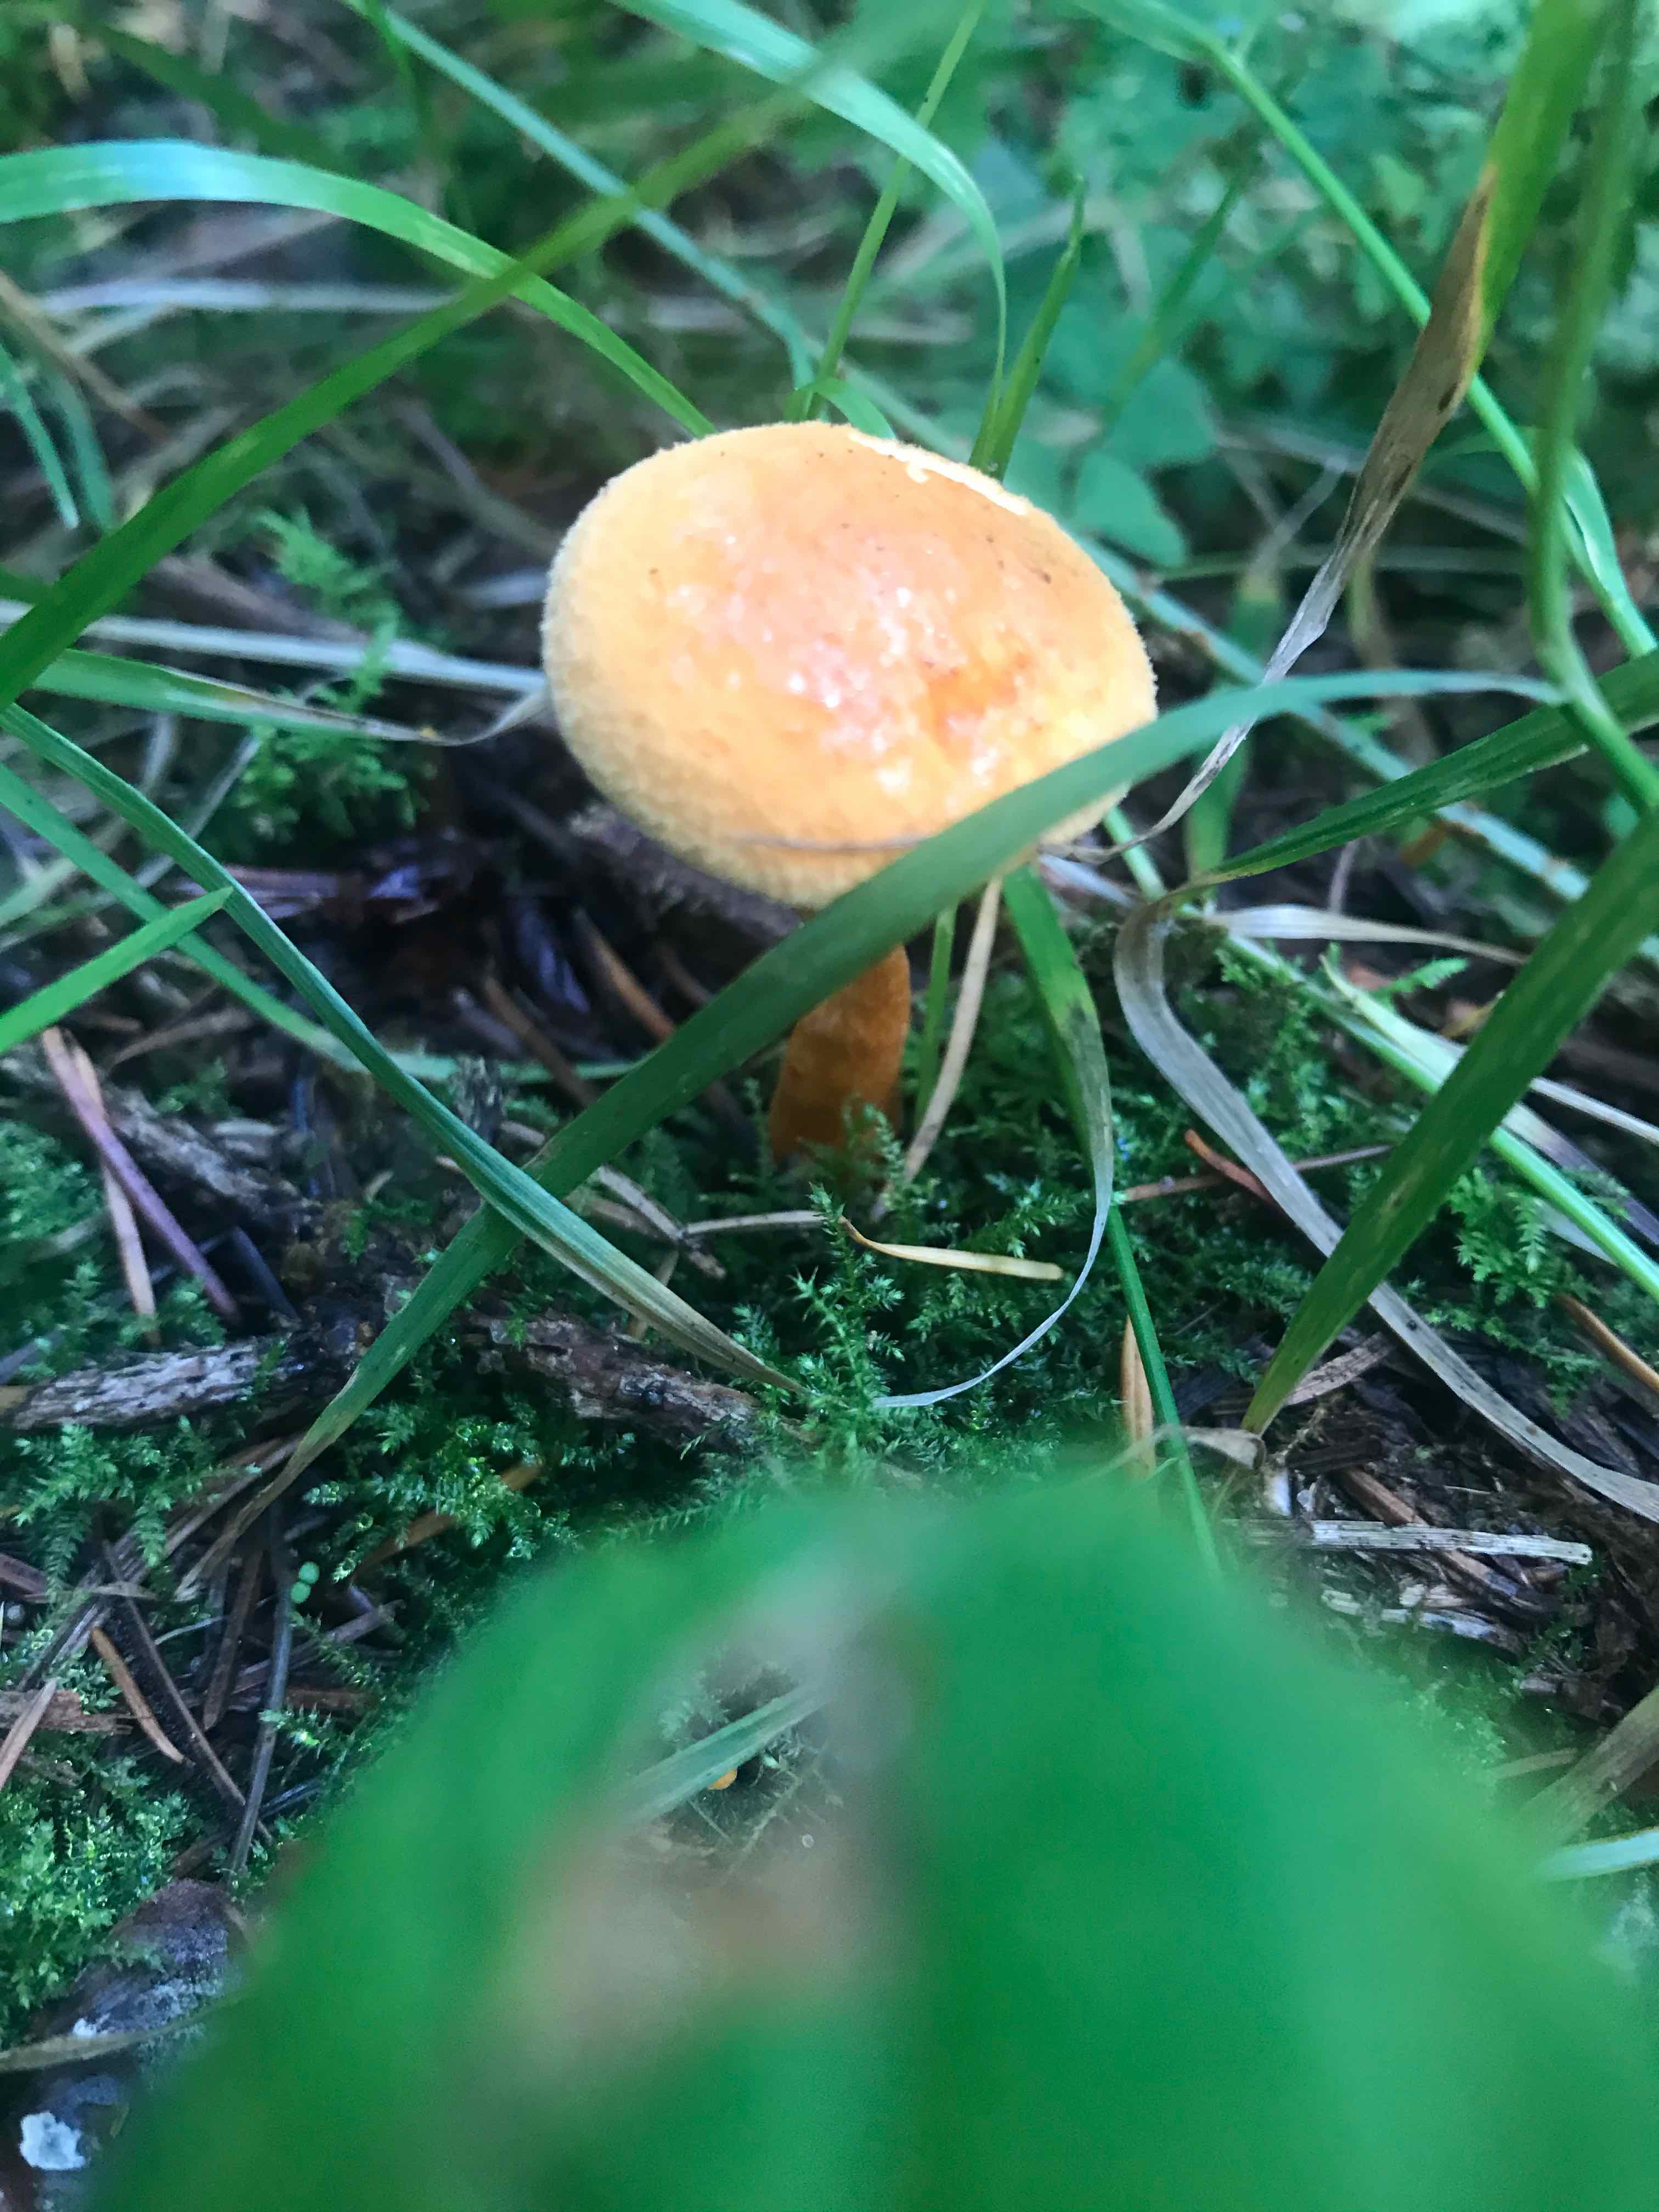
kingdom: Fungi
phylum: Basidiomycota
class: Agaricomycetes
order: Boletales
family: Hygrophoropsidaceae
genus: Hygrophoropsis
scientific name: Hygrophoropsis
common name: orangekantarel
